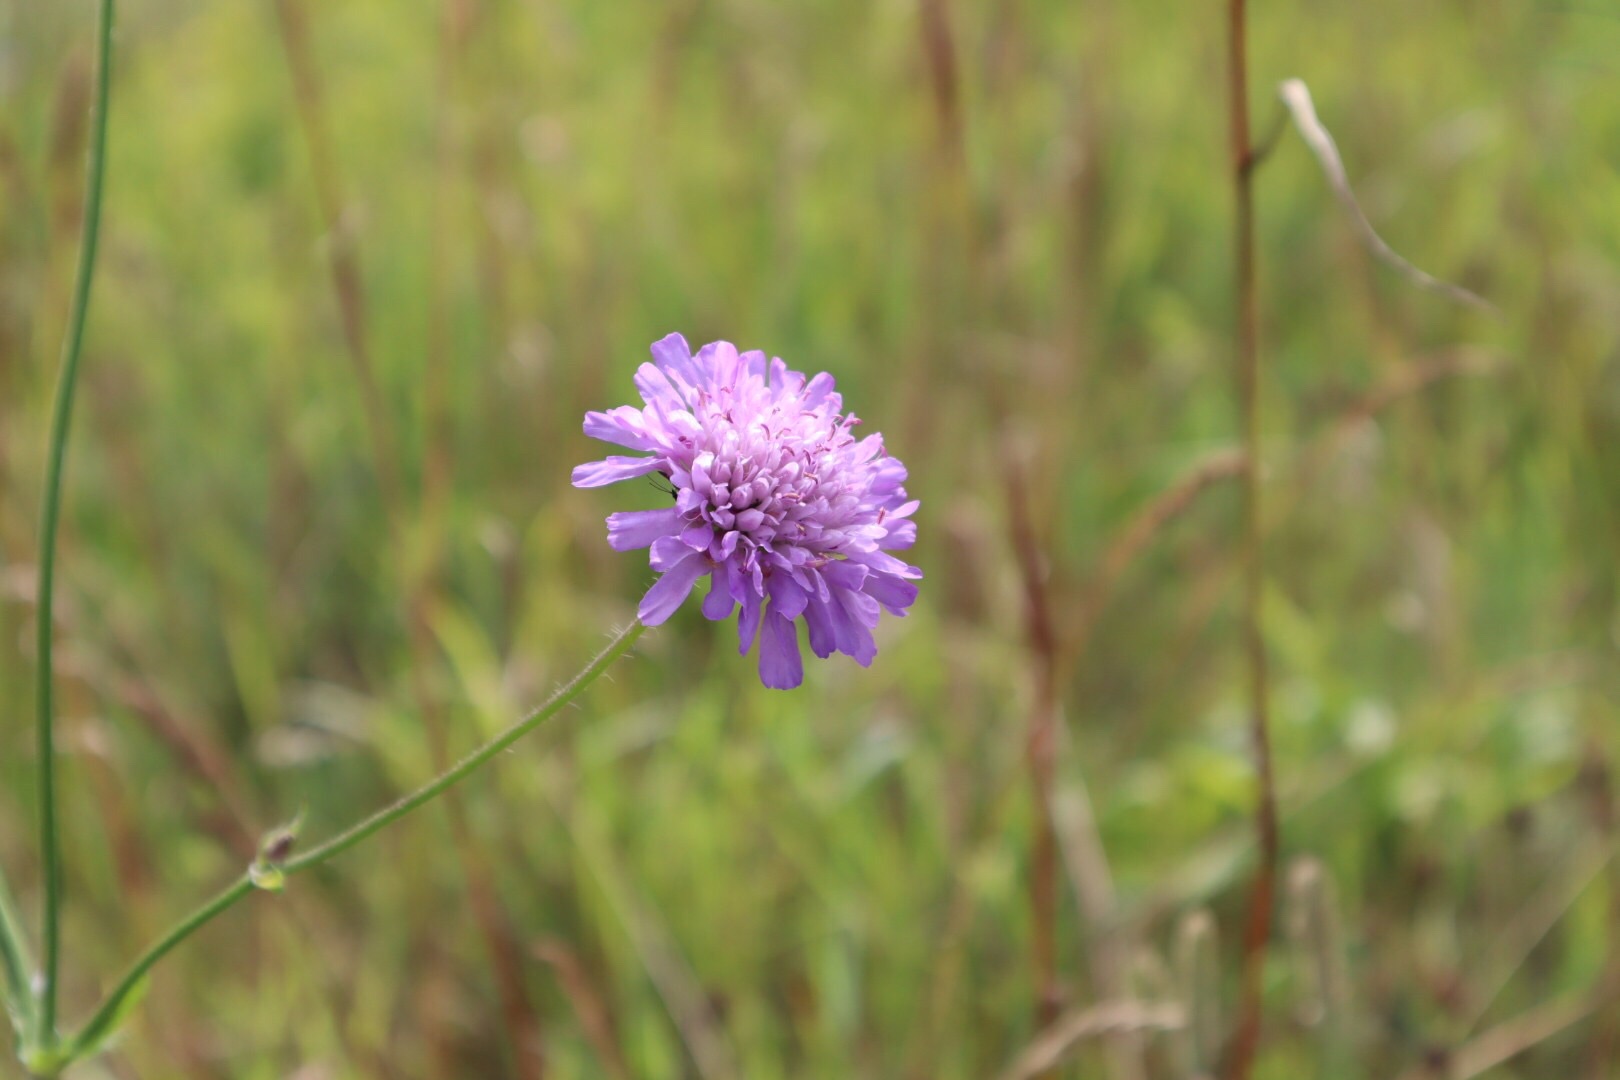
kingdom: Plantae
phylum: Tracheophyta
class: Magnoliopsida
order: Dipsacales
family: Caprifoliaceae
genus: Knautia
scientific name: Knautia arvensis
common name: Blåhat
